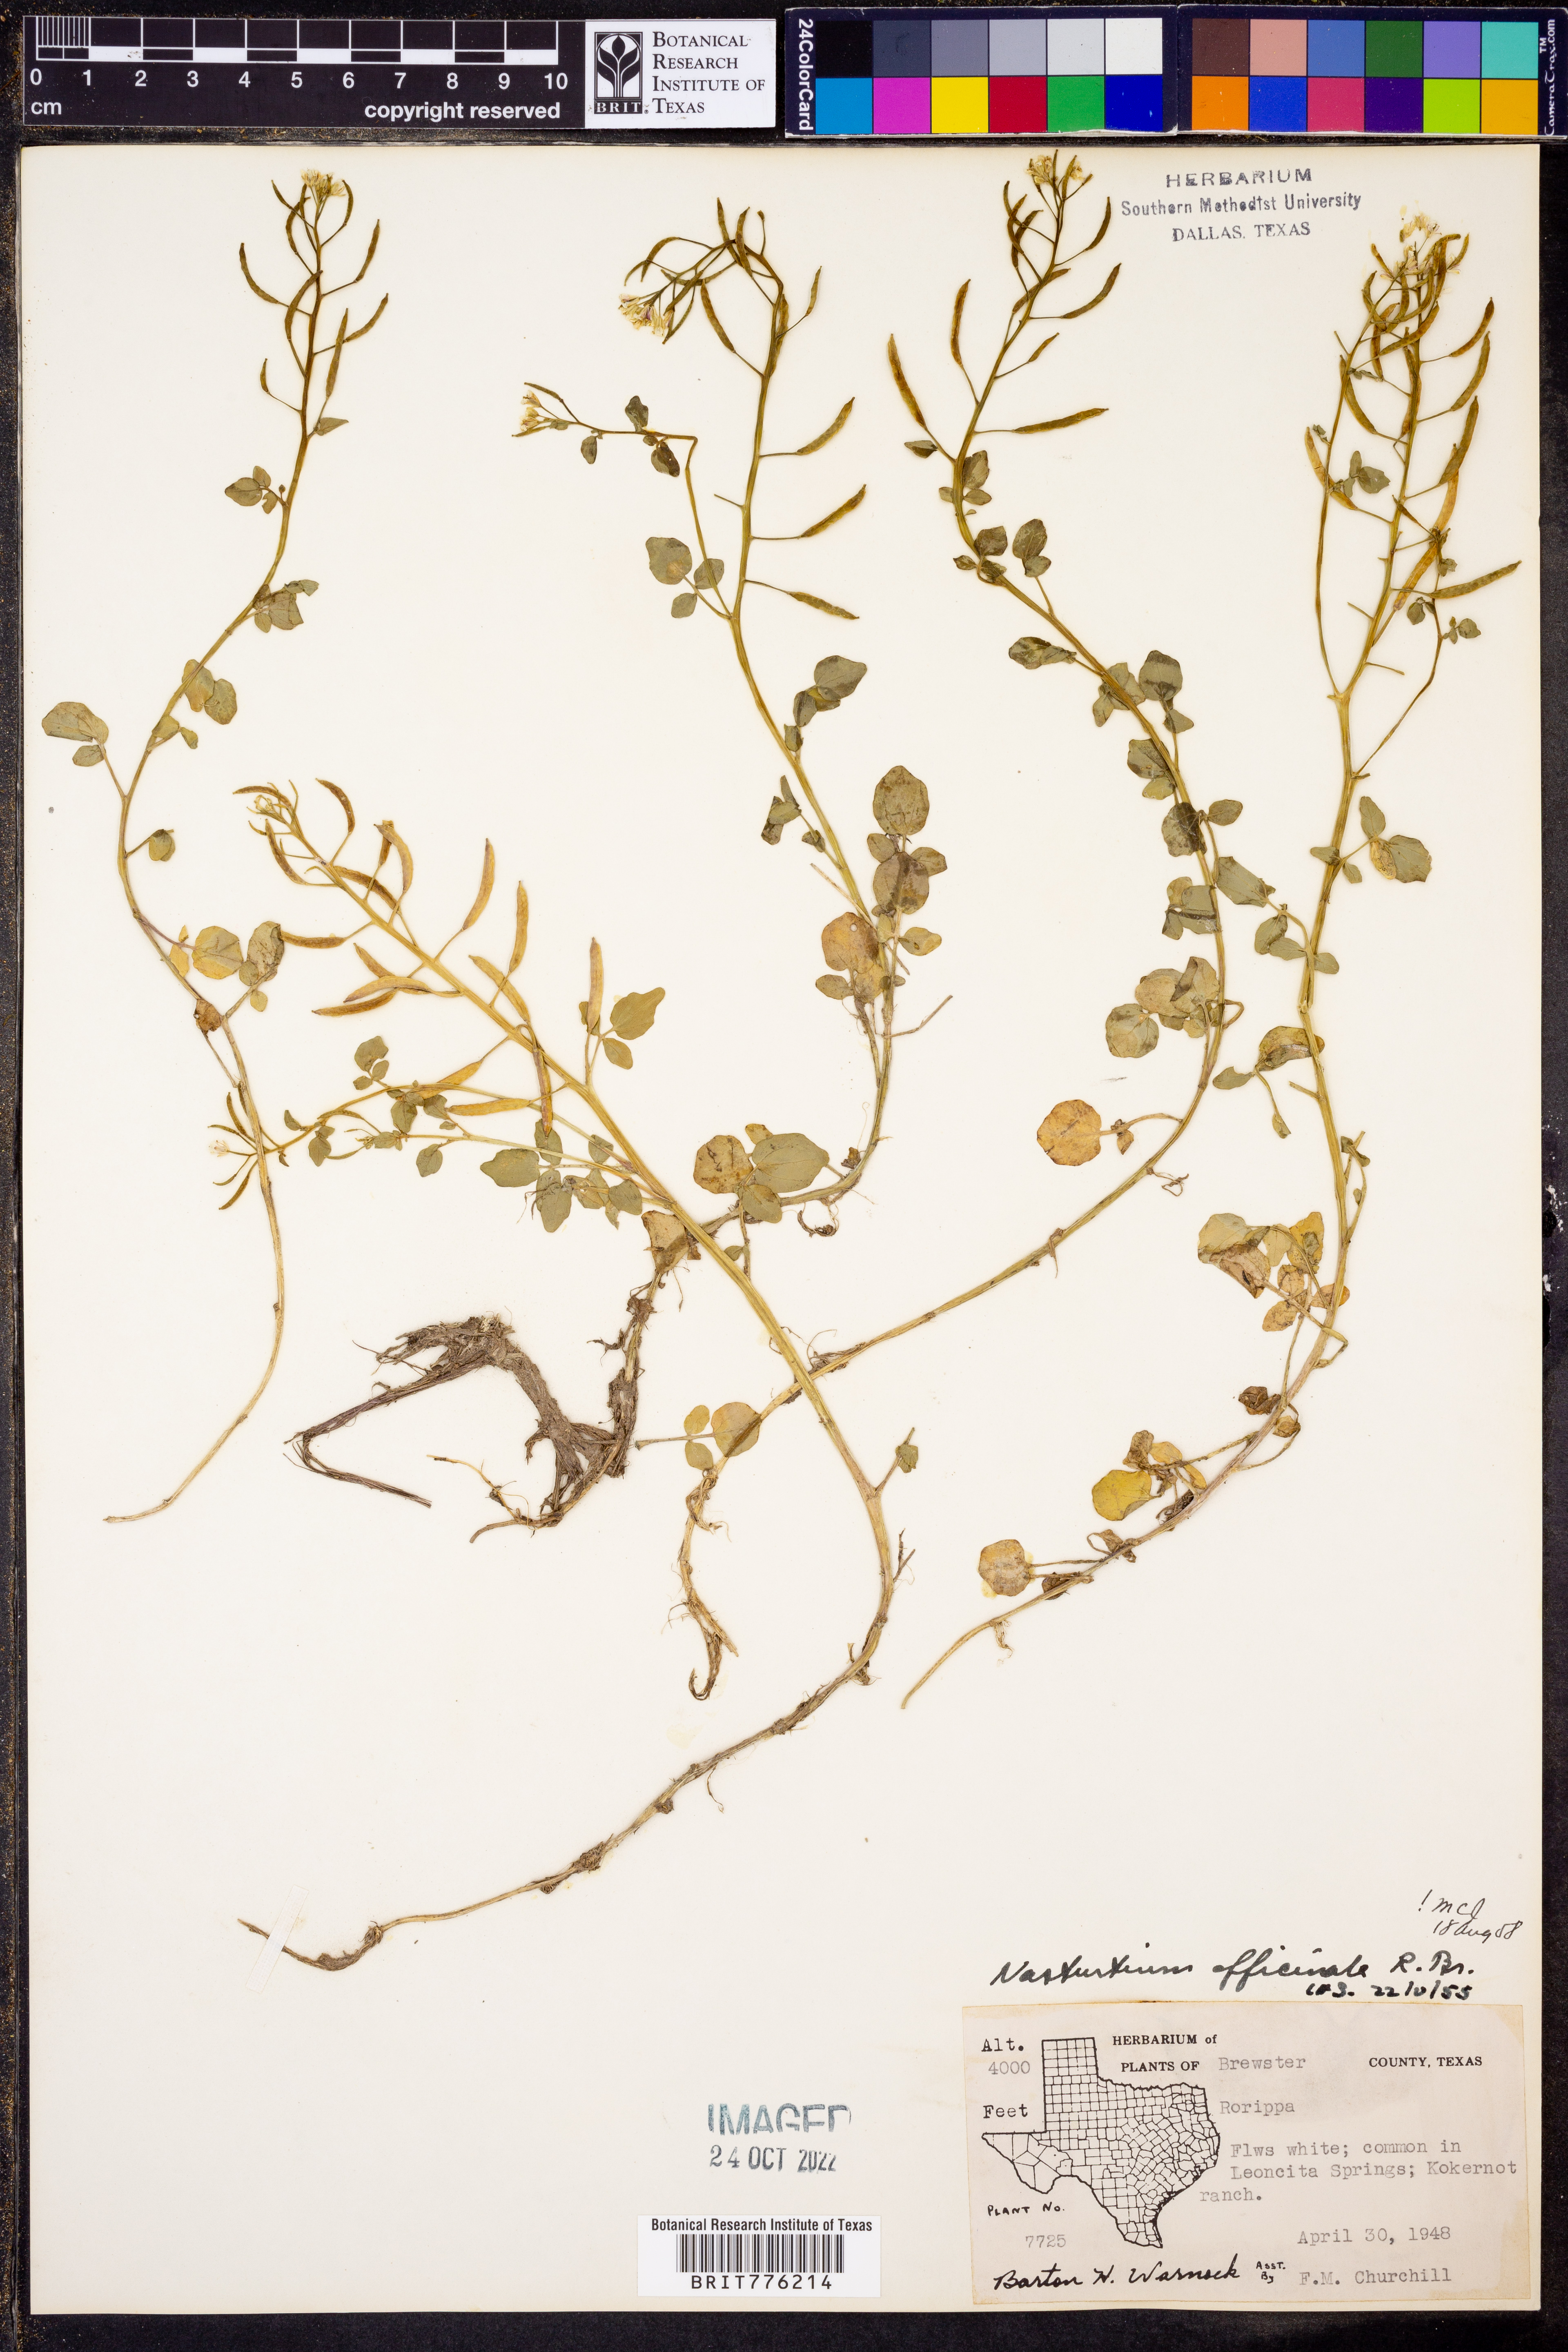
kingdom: Plantae
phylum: Tracheophyta
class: Magnoliopsida
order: Brassicales
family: Brassicaceae
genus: Nasturtium
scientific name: Nasturtium officinale
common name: Watercress
